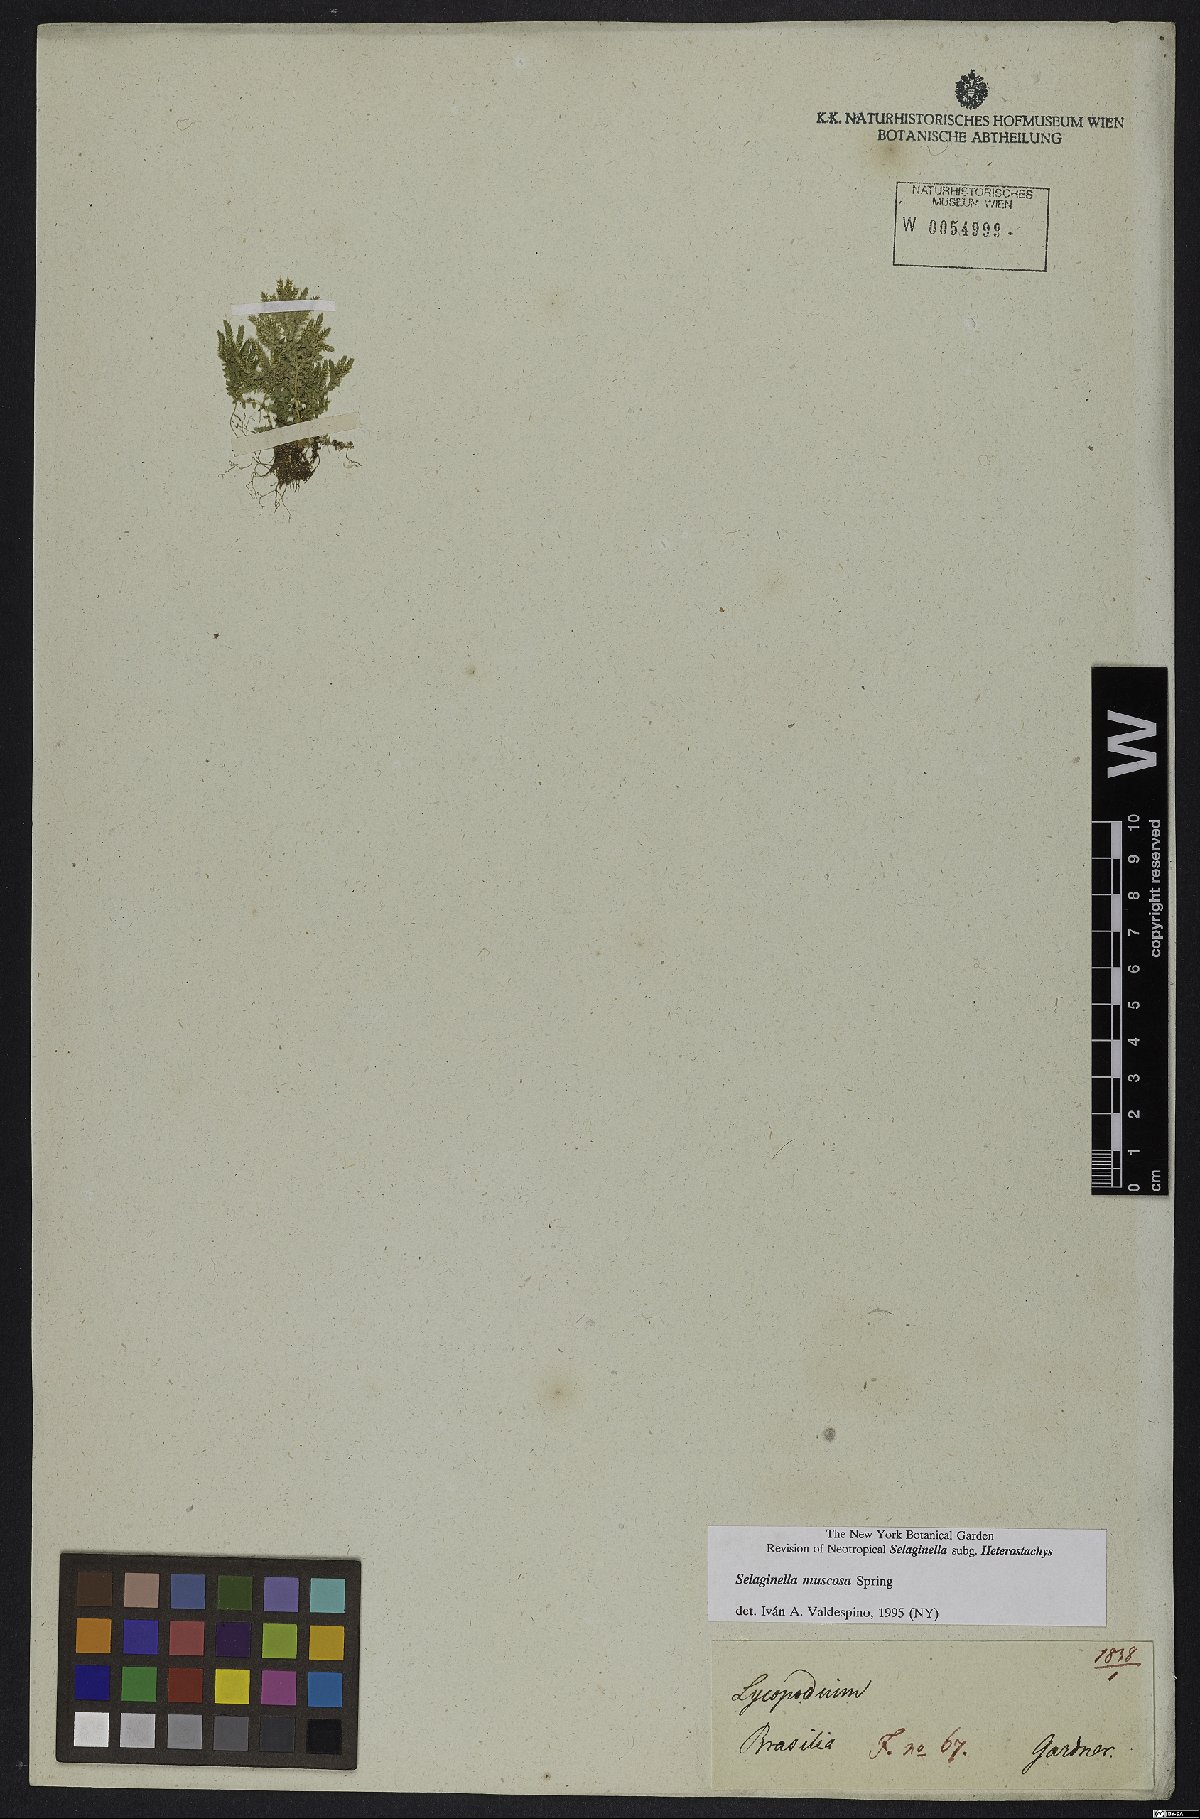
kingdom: Plantae
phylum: Tracheophyta
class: Lycopodiopsida
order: Selaginellales
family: Selaginellaceae
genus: Selaginella
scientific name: Selaginella muscosa
